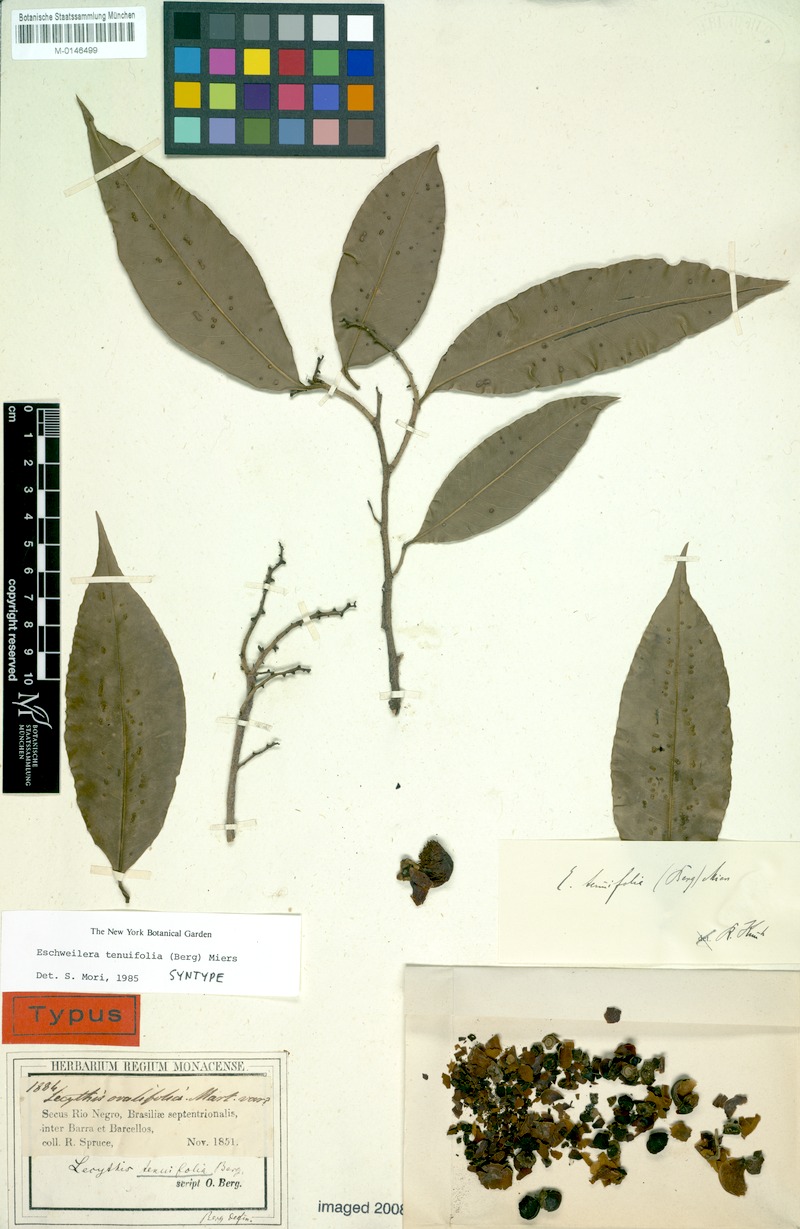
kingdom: Plantae
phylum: Tracheophyta
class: Magnoliopsida
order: Ericales
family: Lecythidaceae
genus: Eschweilera
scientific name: Eschweilera tenuifolia
